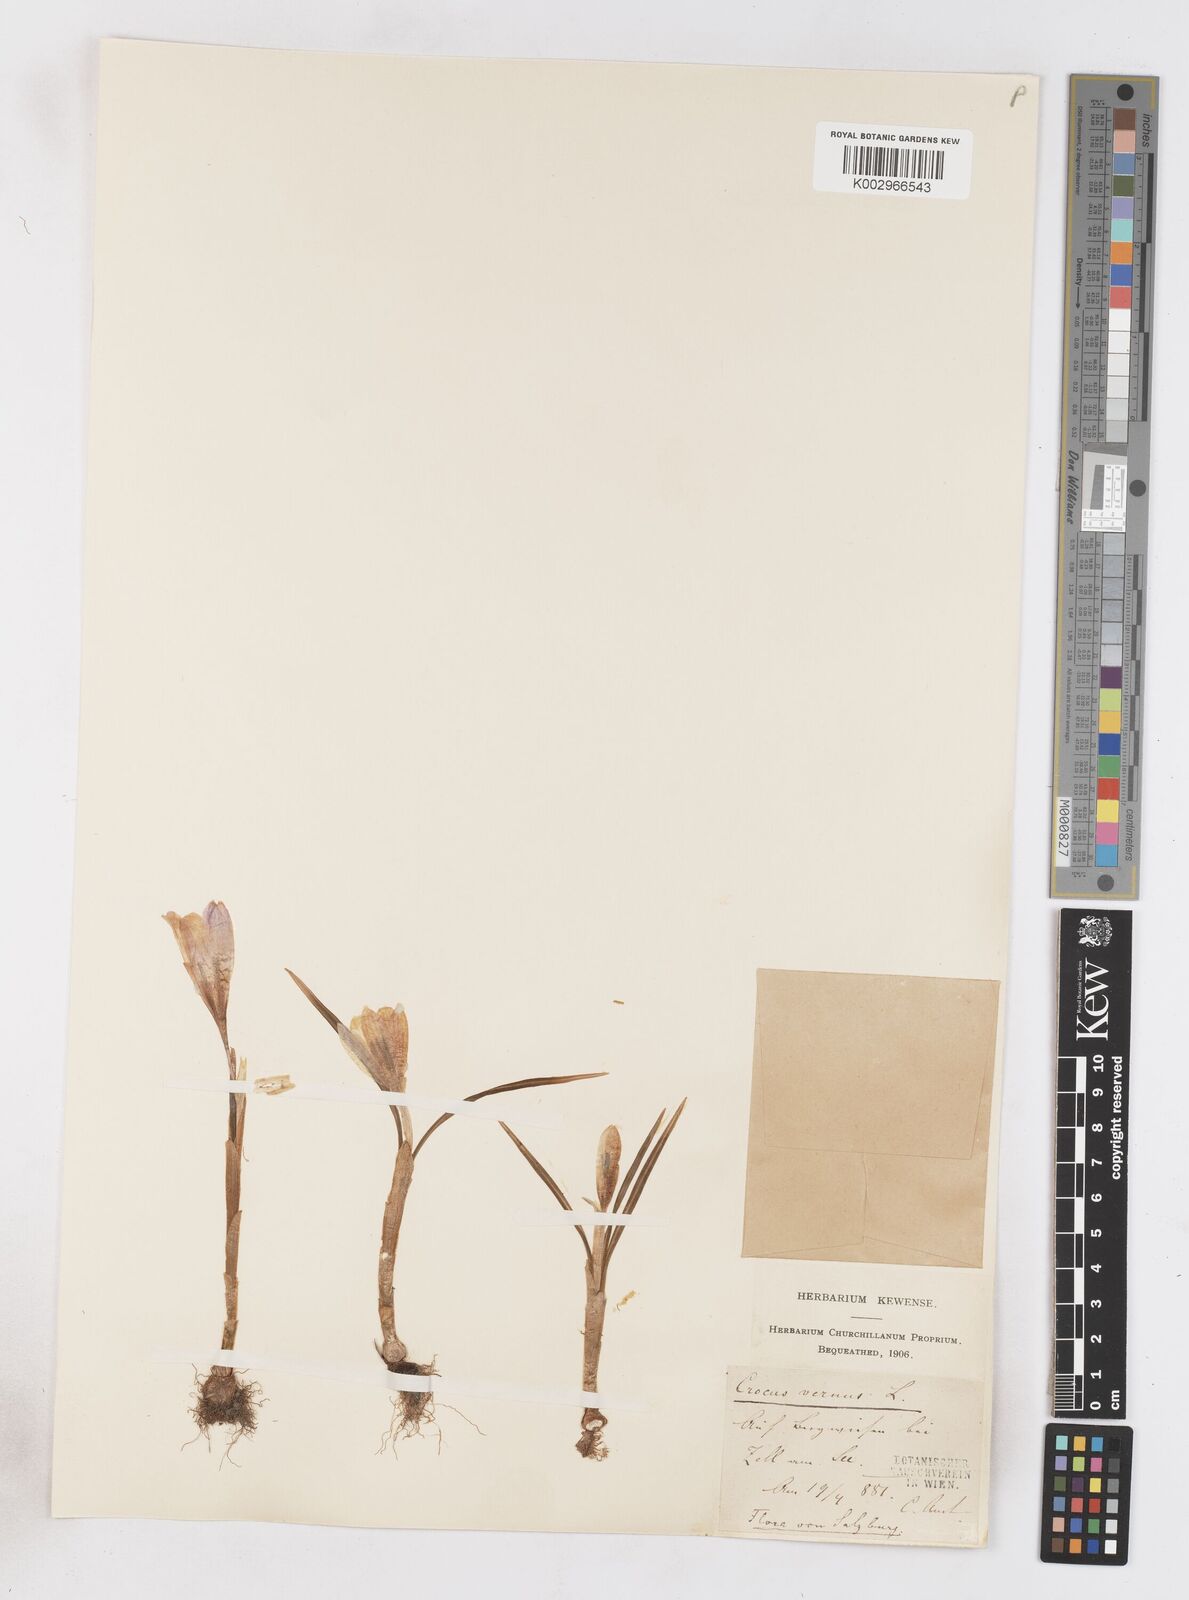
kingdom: Plantae
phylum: Tracheophyta
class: Liliopsida
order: Asparagales
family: Iridaceae
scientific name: Iridaceae
